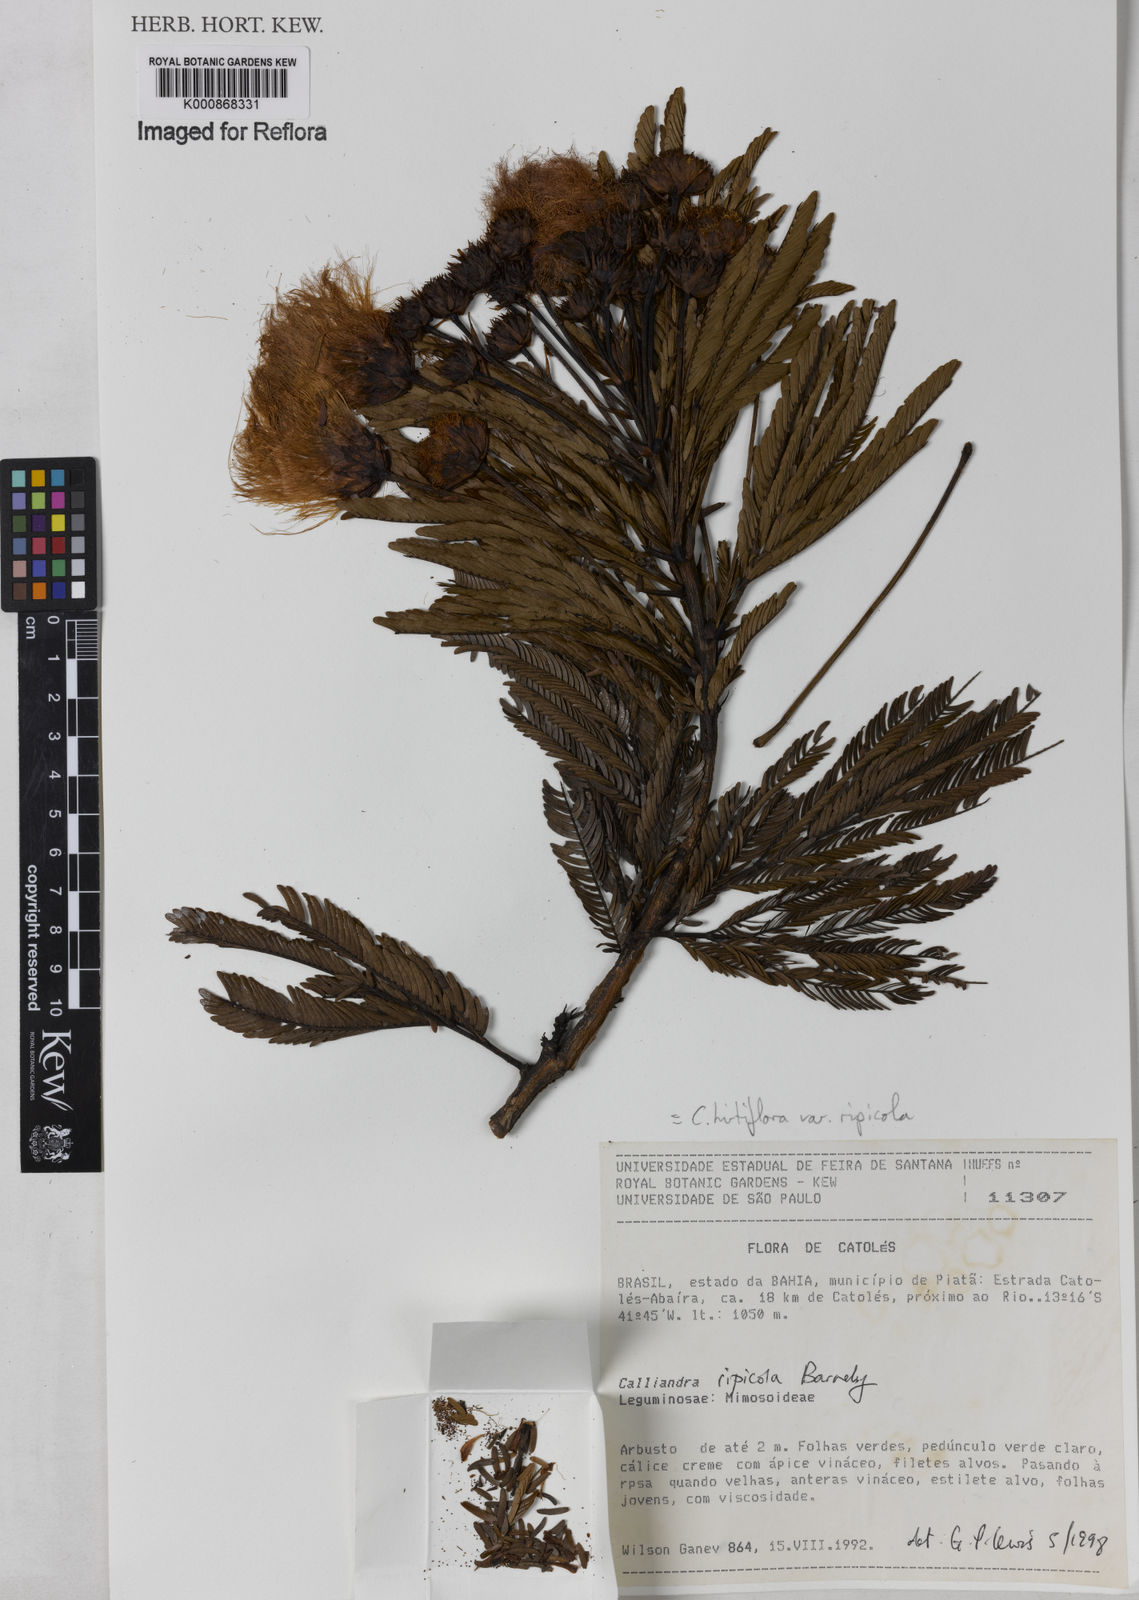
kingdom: Plantae
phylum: Tracheophyta
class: Magnoliopsida
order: Fabales
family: Fabaceae
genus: Calliandra
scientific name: Calliandra hirtiflora
